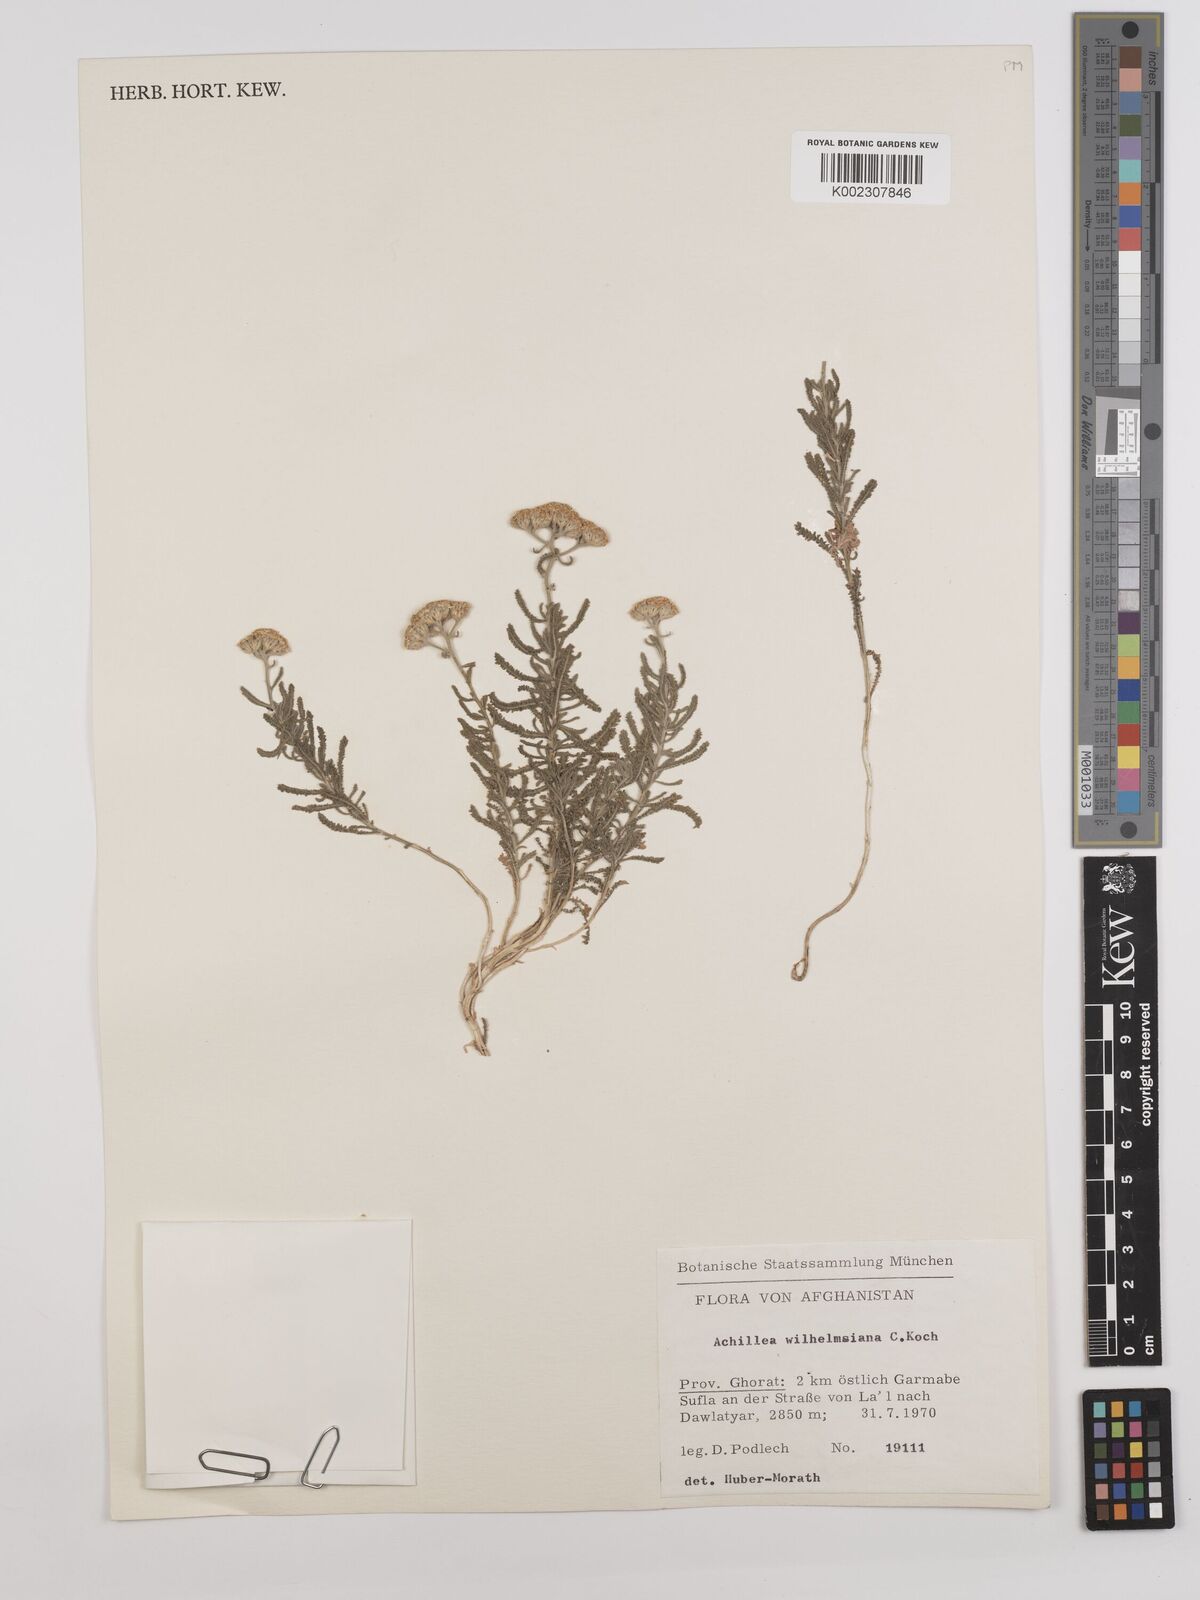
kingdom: Plantae
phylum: Tracheophyta
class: Magnoliopsida
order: Asterales
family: Asteraceae
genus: Achillea
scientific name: Achillea cretica
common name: Chamomile-leaved lavender-cotton
